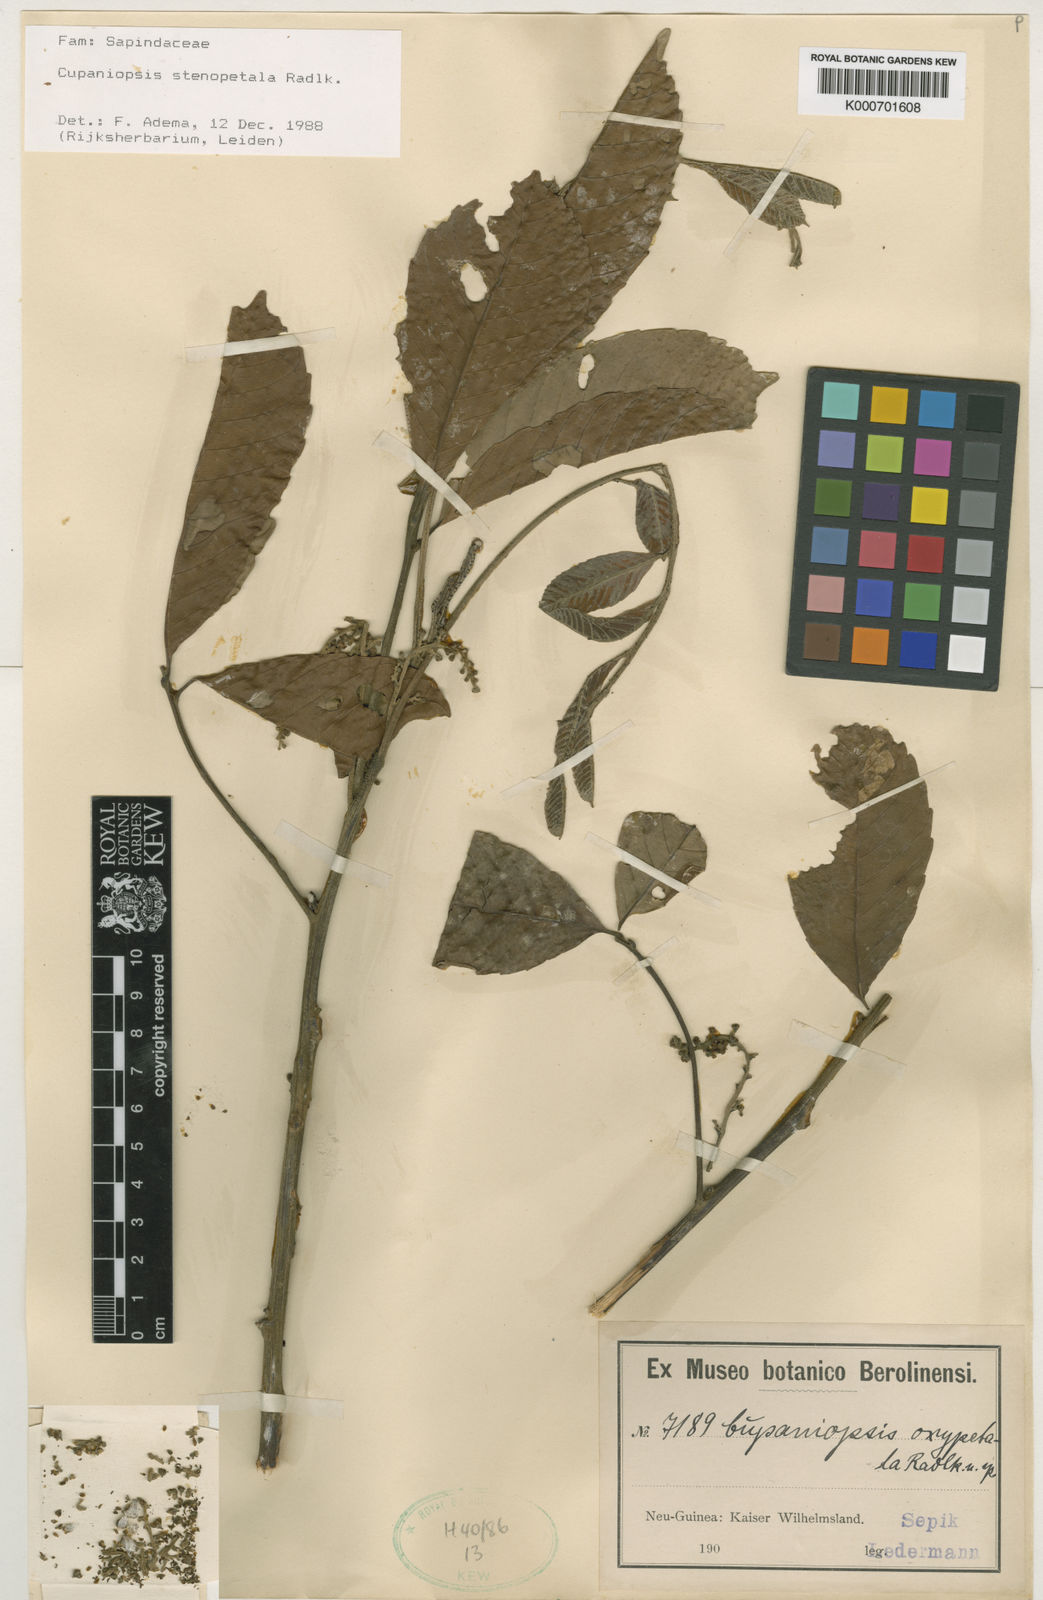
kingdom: Plantae
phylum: Tracheophyta
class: Magnoliopsida
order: Sapindales
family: Sapindaceae
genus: Cupaniopsis
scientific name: Cupaniopsis stenopetala
